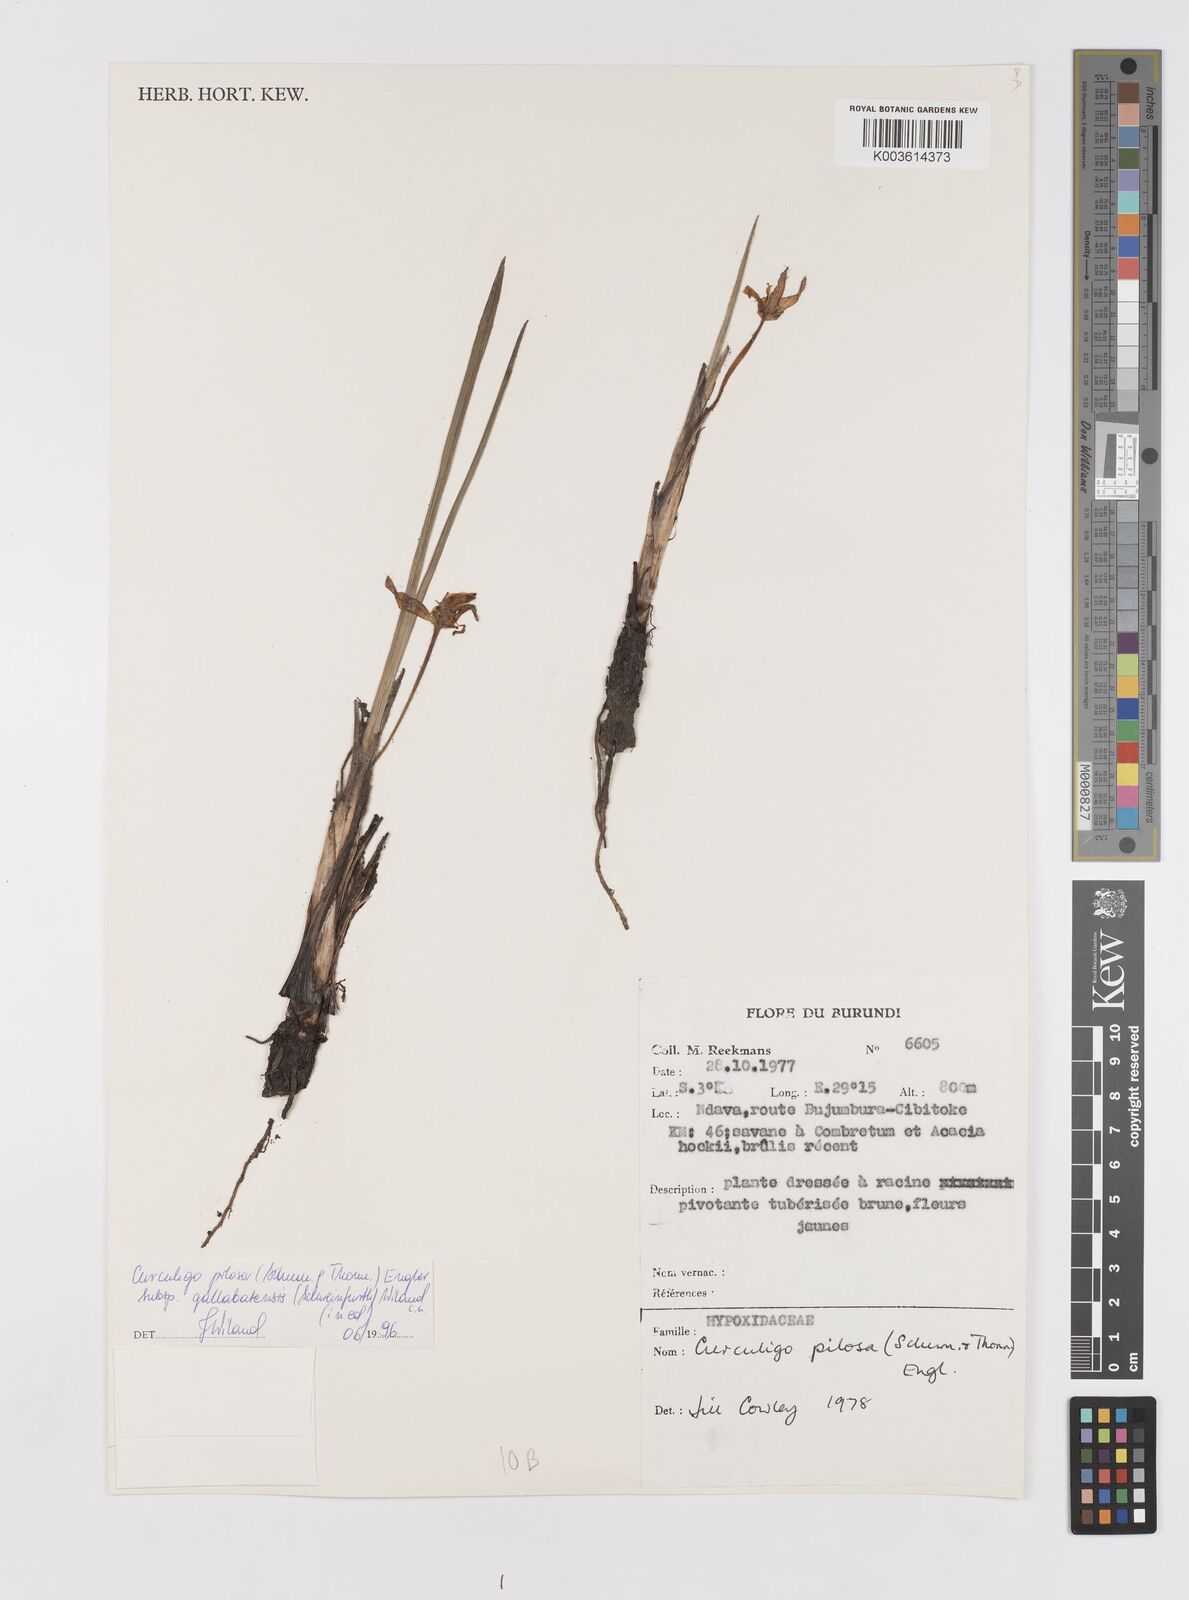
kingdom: Plantae
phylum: Tracheophyta
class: Liliopsida
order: Asparagales
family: Hypoxidaceae
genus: Curculigo
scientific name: Curculigo pilosa
